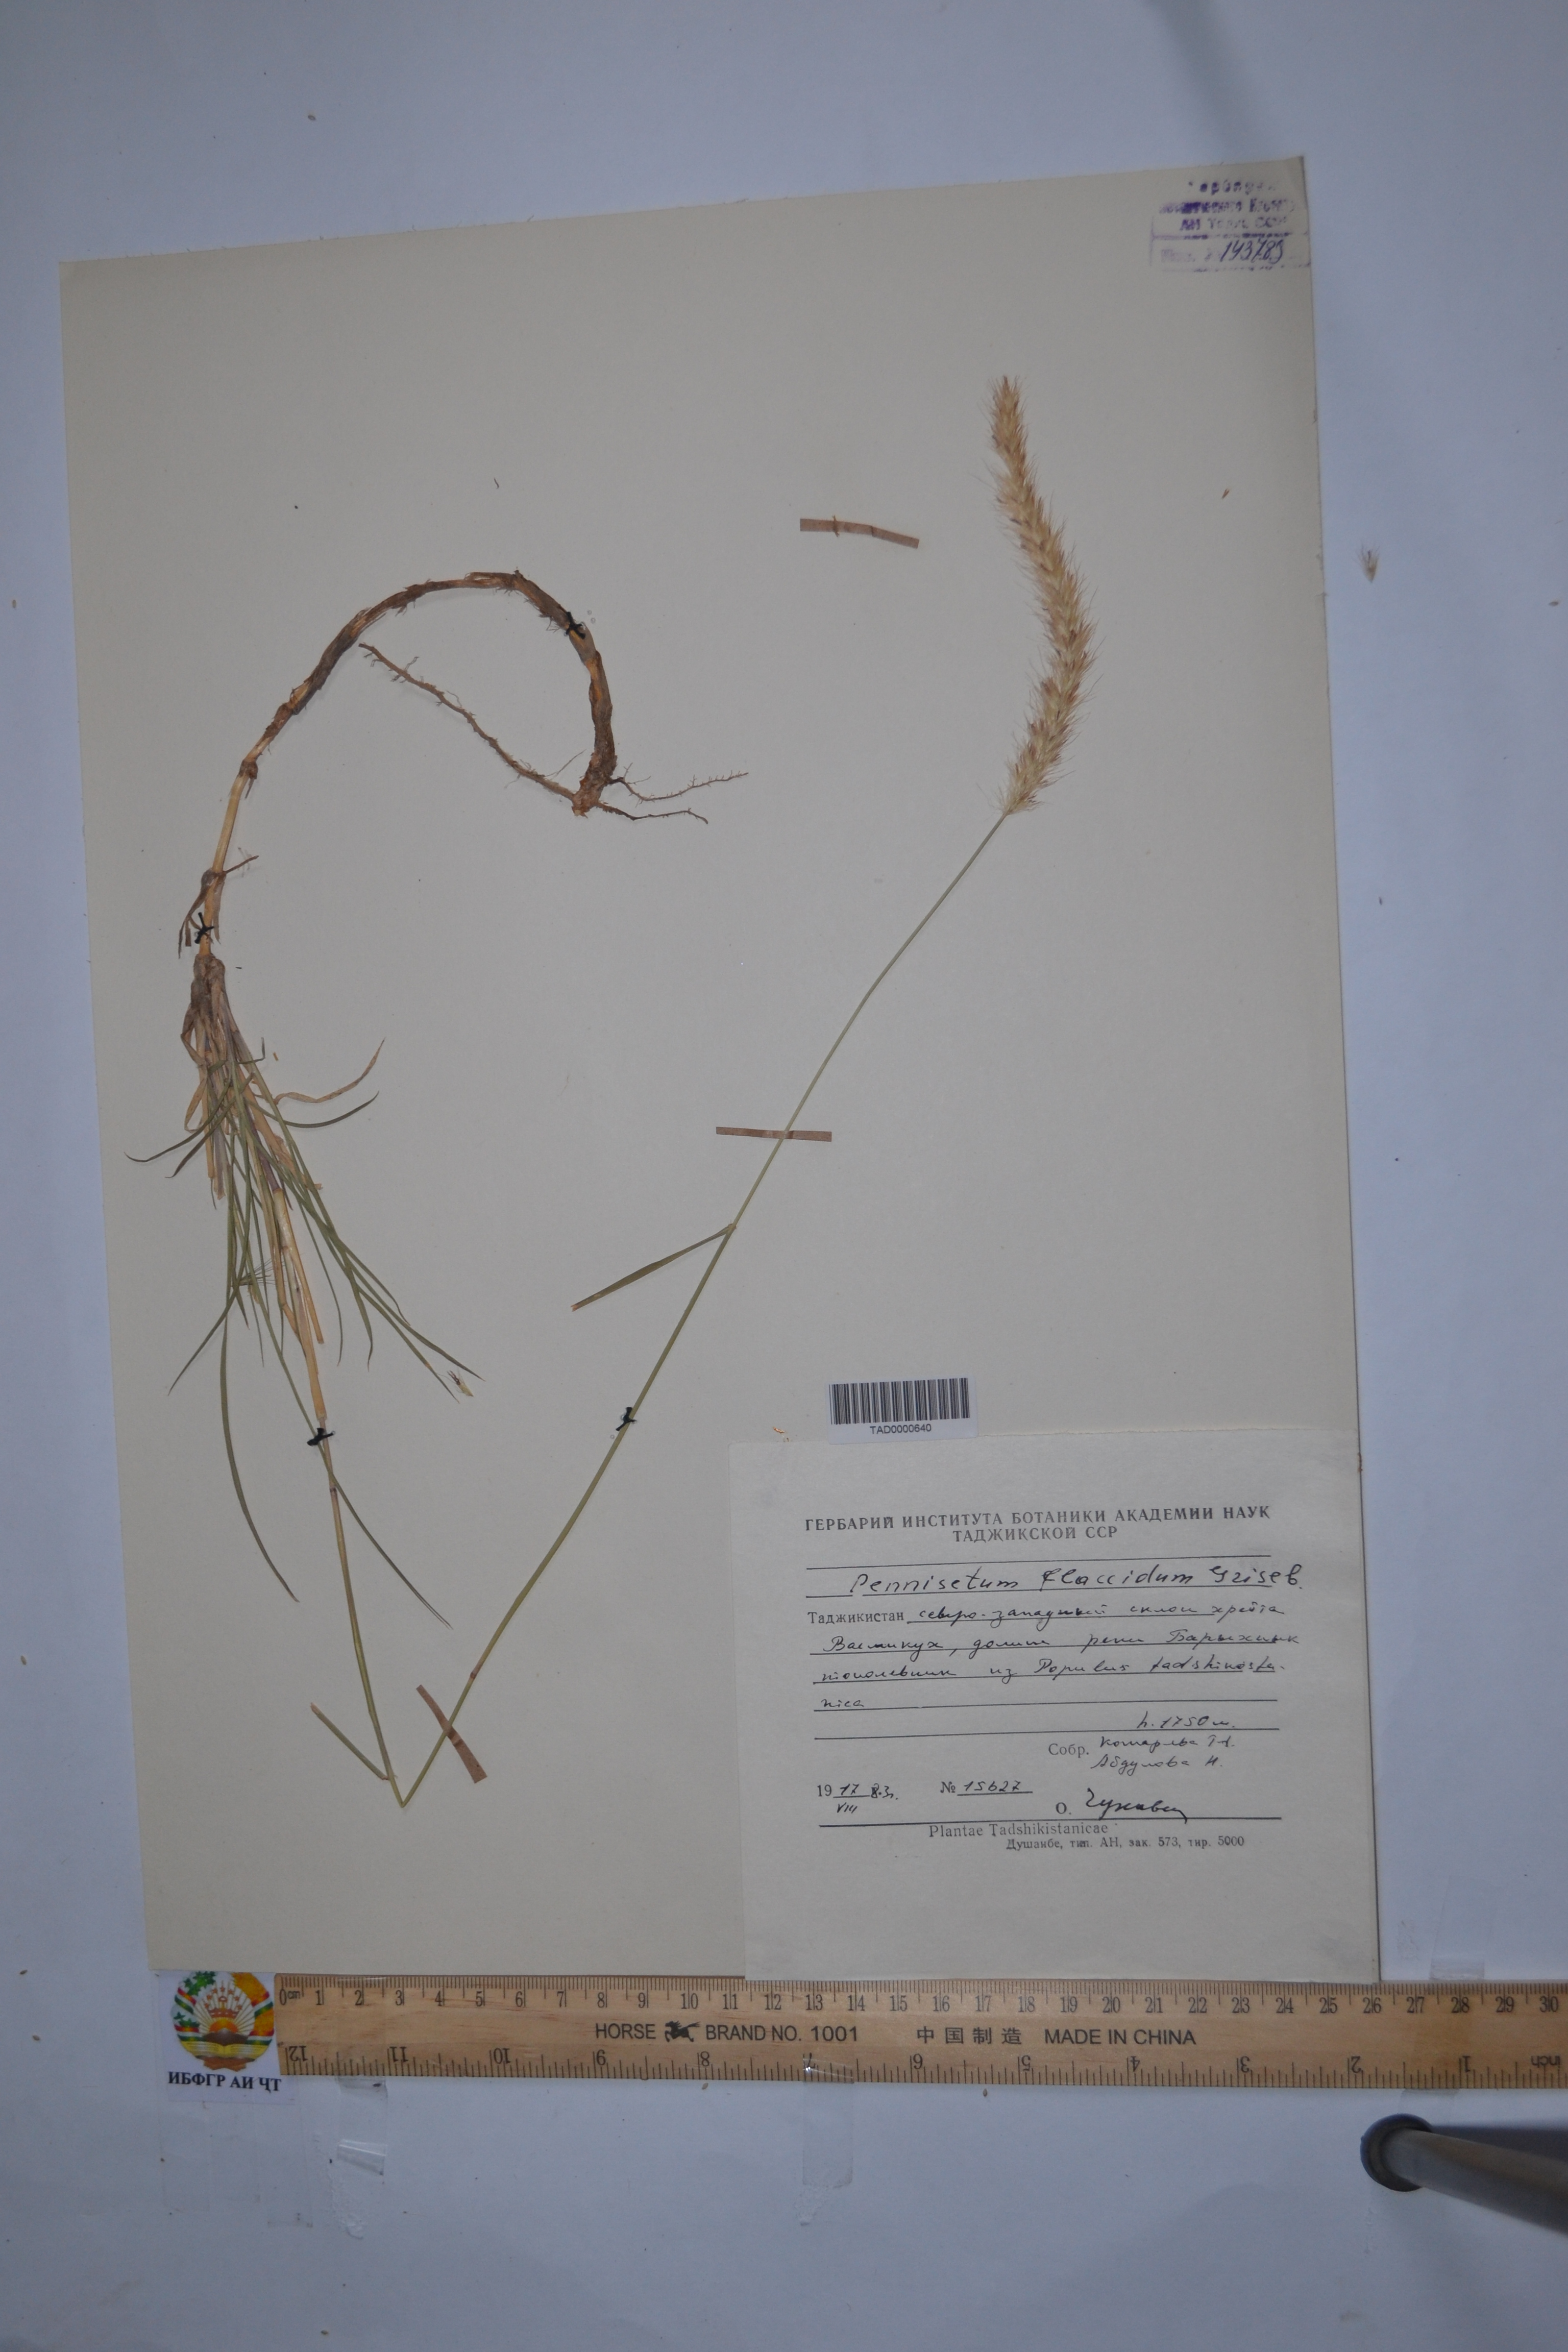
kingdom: Plantae
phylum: Tracheophyta
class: Liliopsida
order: Poales
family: Poaceae
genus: Cenchrus
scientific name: Cenchrus flaccidus
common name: Flaccid grass
